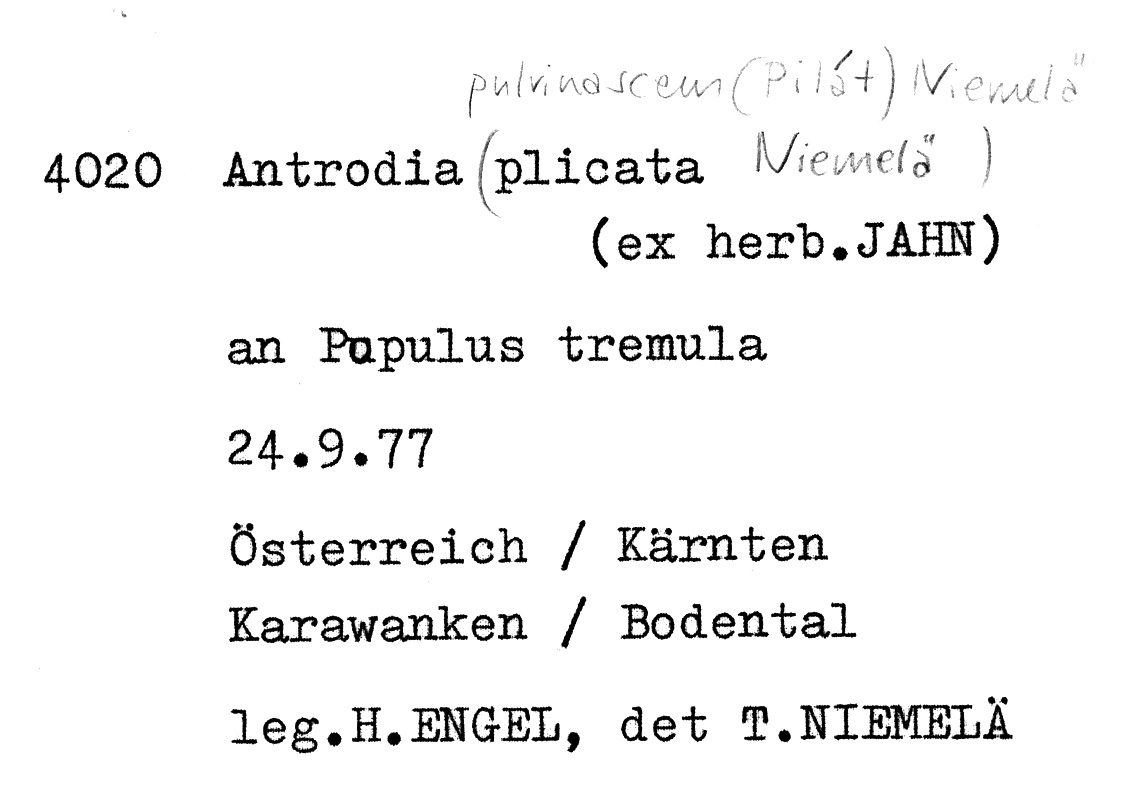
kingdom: Plantae
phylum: Tracheophyta
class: Magnoliopsida
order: Malpighiales
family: Salicaceae
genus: Populus
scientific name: Populus tremula
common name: European aspen
